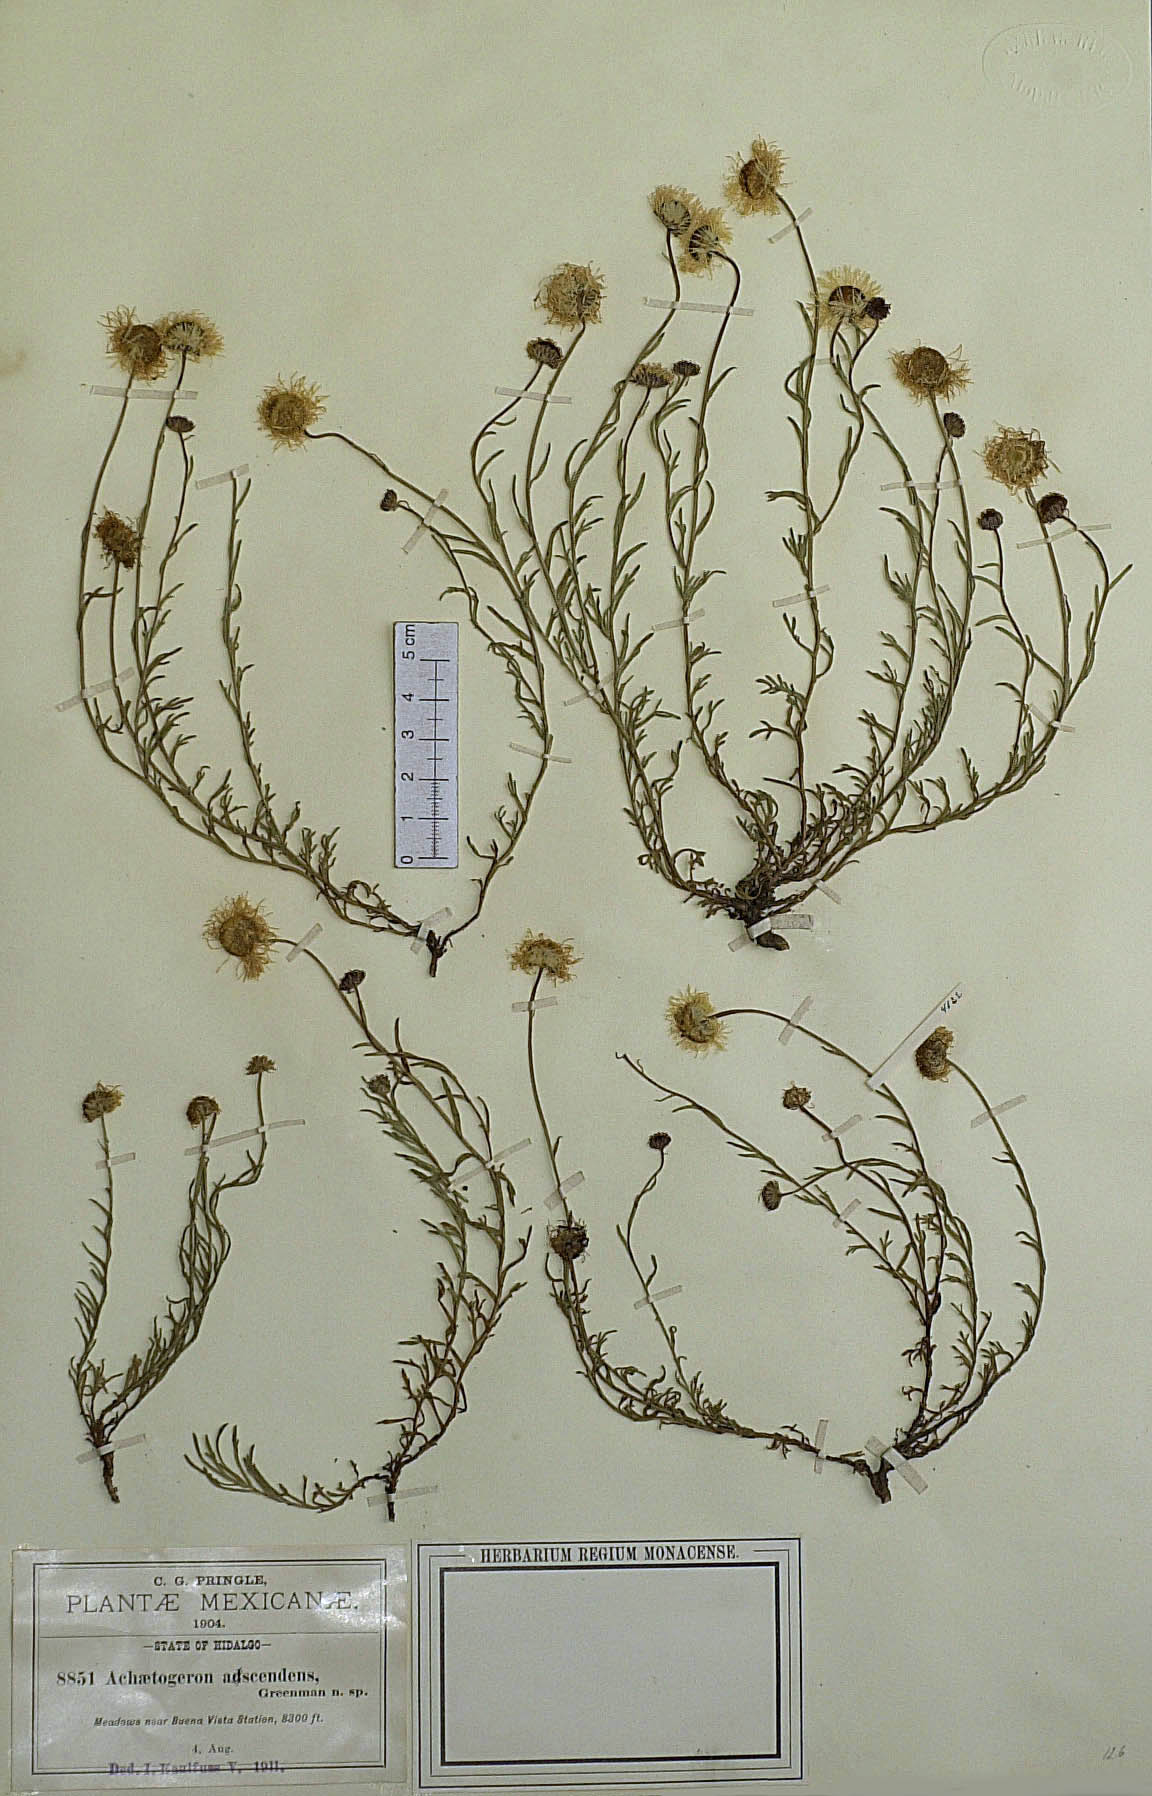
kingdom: Plantae
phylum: Tracheophyta
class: Magnoliopsida
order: Asterales
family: Asteraceae
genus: Archaetogeron
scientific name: Archaetogeron
